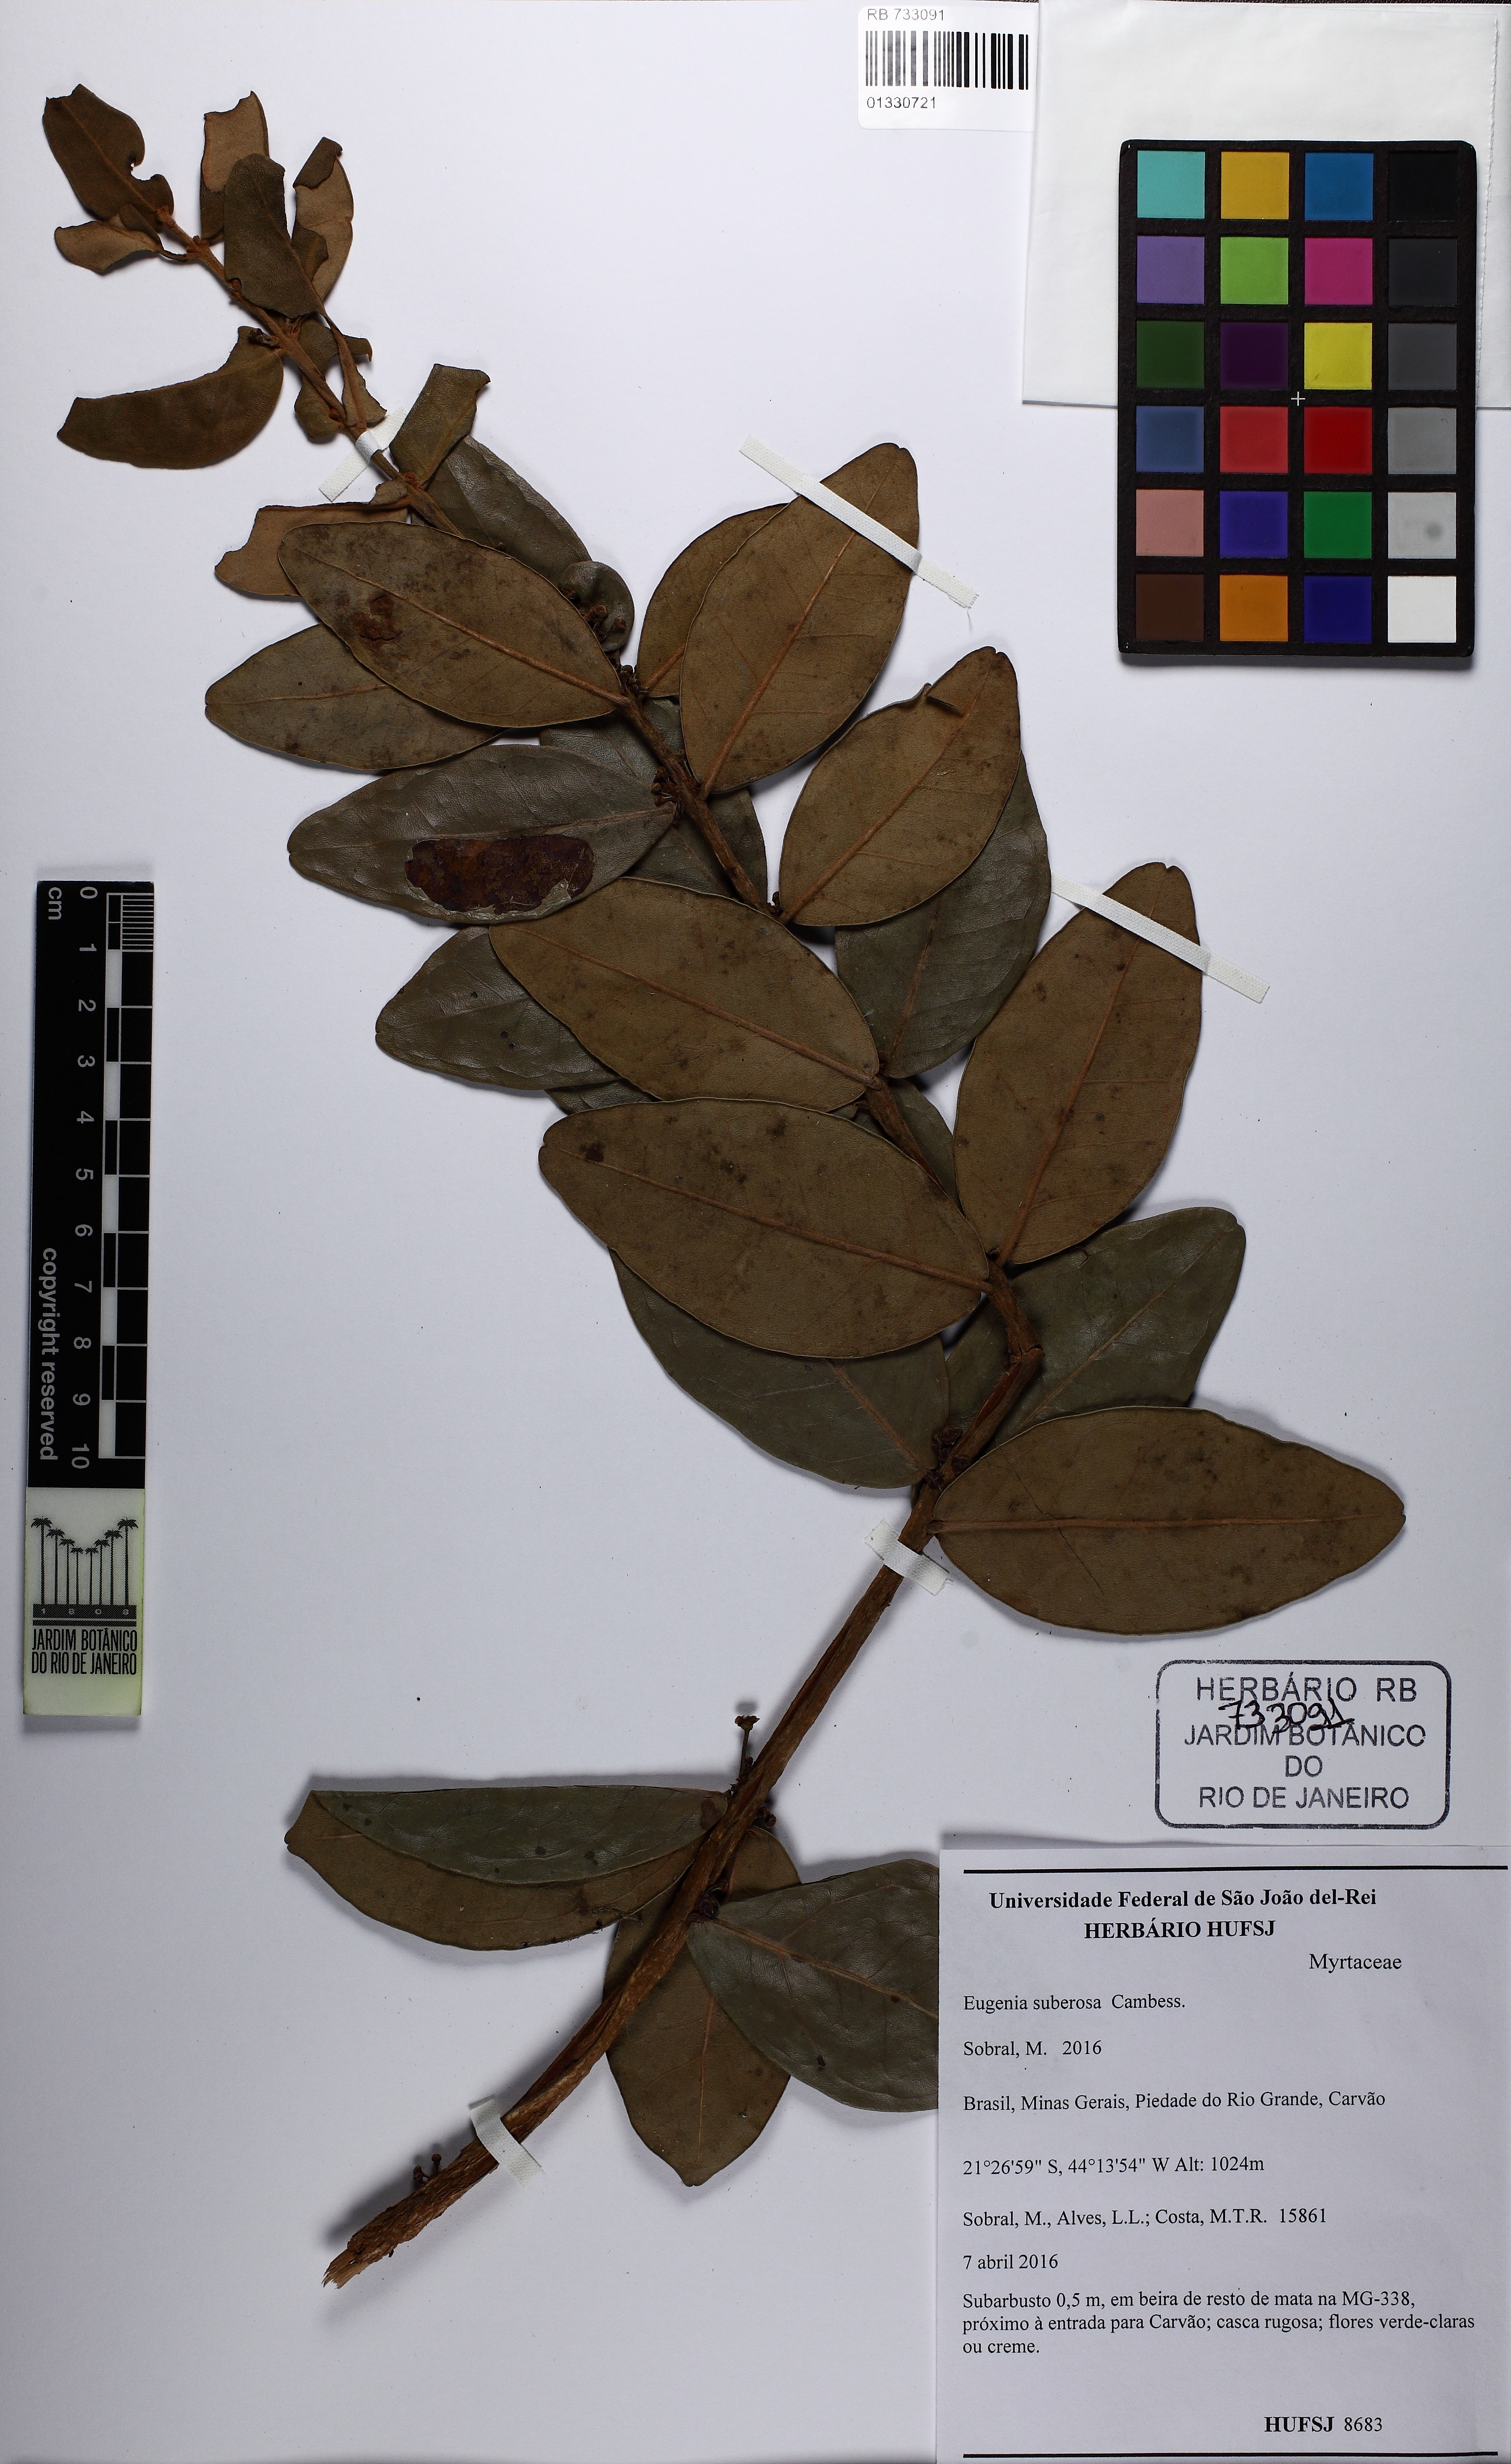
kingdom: Plantae
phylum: Tracheophyta
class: Magnoliopsida
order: Myrtales
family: Myrtaceae
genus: Eugenia
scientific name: Eugenia suberosa
